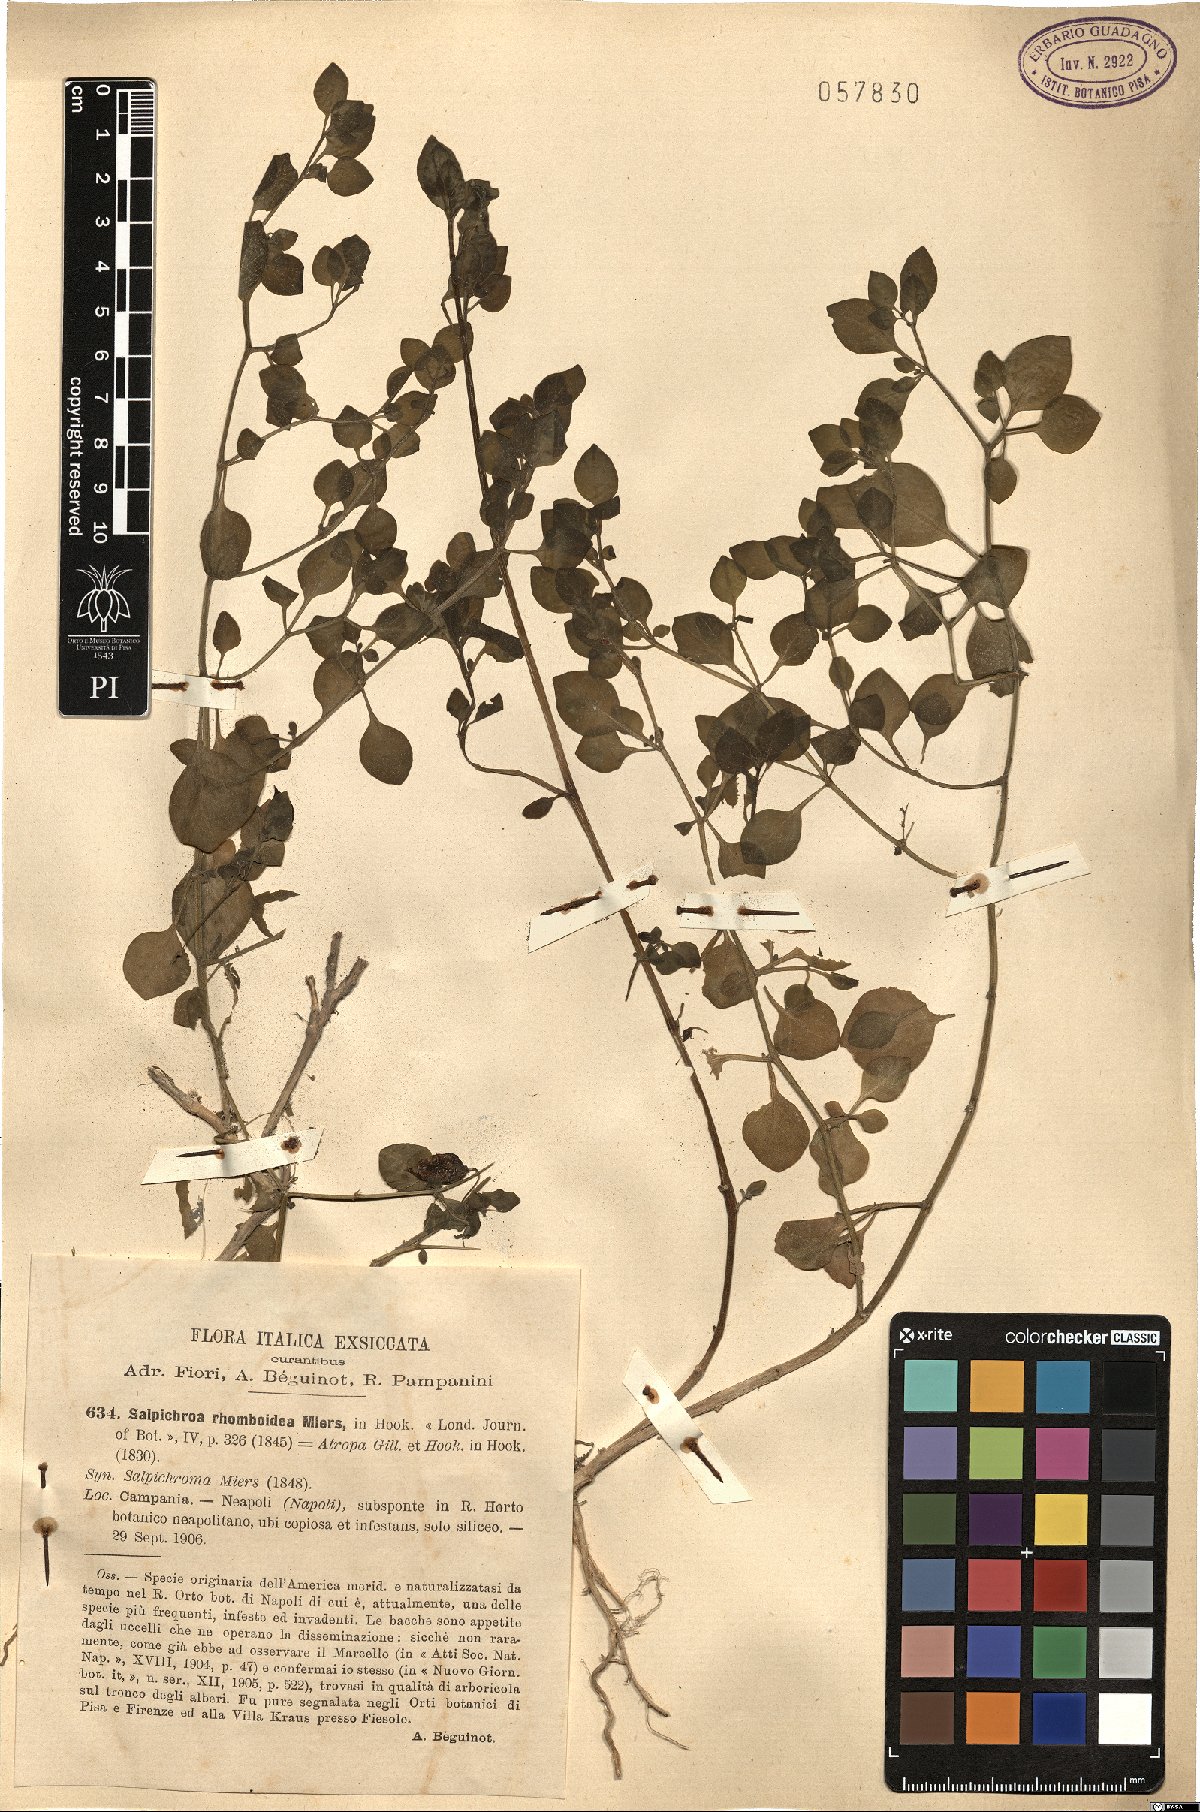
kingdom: Plantae
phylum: Tracheophyta
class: Magnoliopsida
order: Solanales
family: Solanaceae
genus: Salpichroa
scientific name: Salpichroa origanifolia
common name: Lily-of-the-valley-vine
